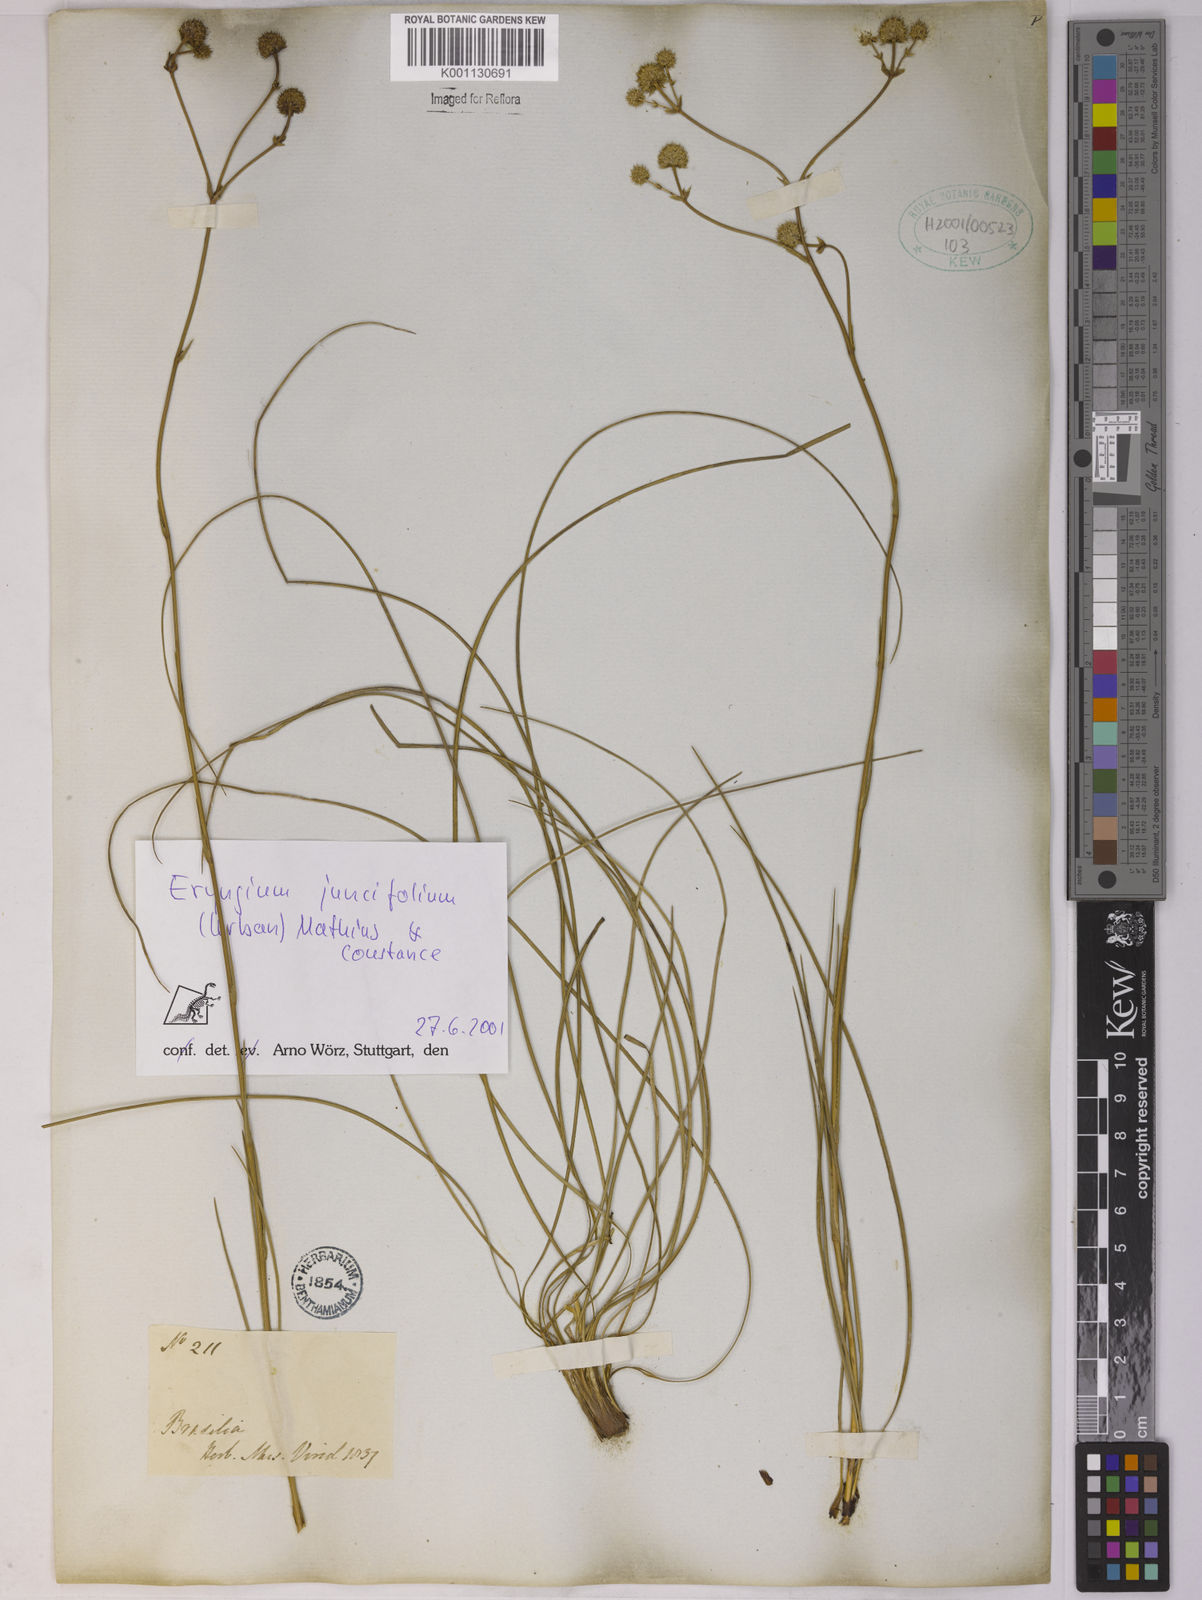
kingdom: Plantae
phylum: Tracheophyta
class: Magnoliopsida
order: Apiales
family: Apiaceae
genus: Eryngium
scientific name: Eryngium juncifolium
